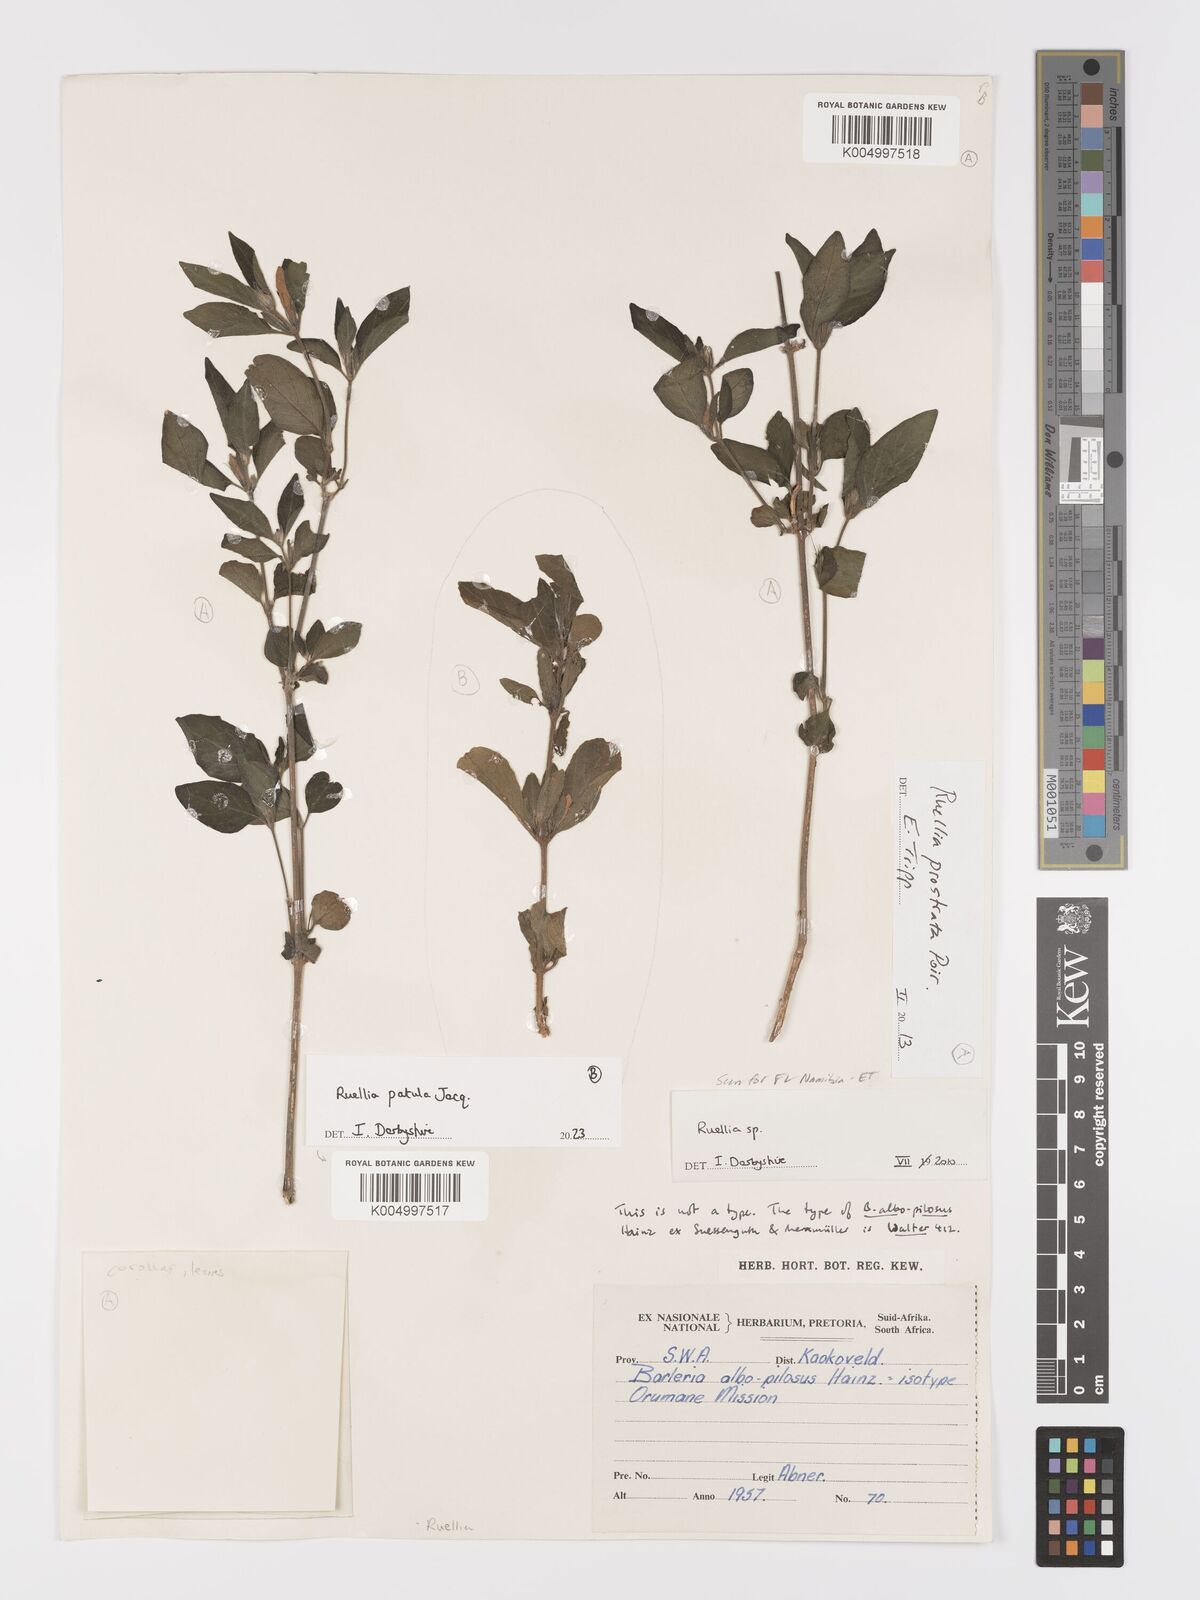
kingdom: Plantae
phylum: Tracheophyta
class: Magnoliopsida
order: Lamiales
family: Acanthaceae
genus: Ruellia
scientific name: Ruellia
